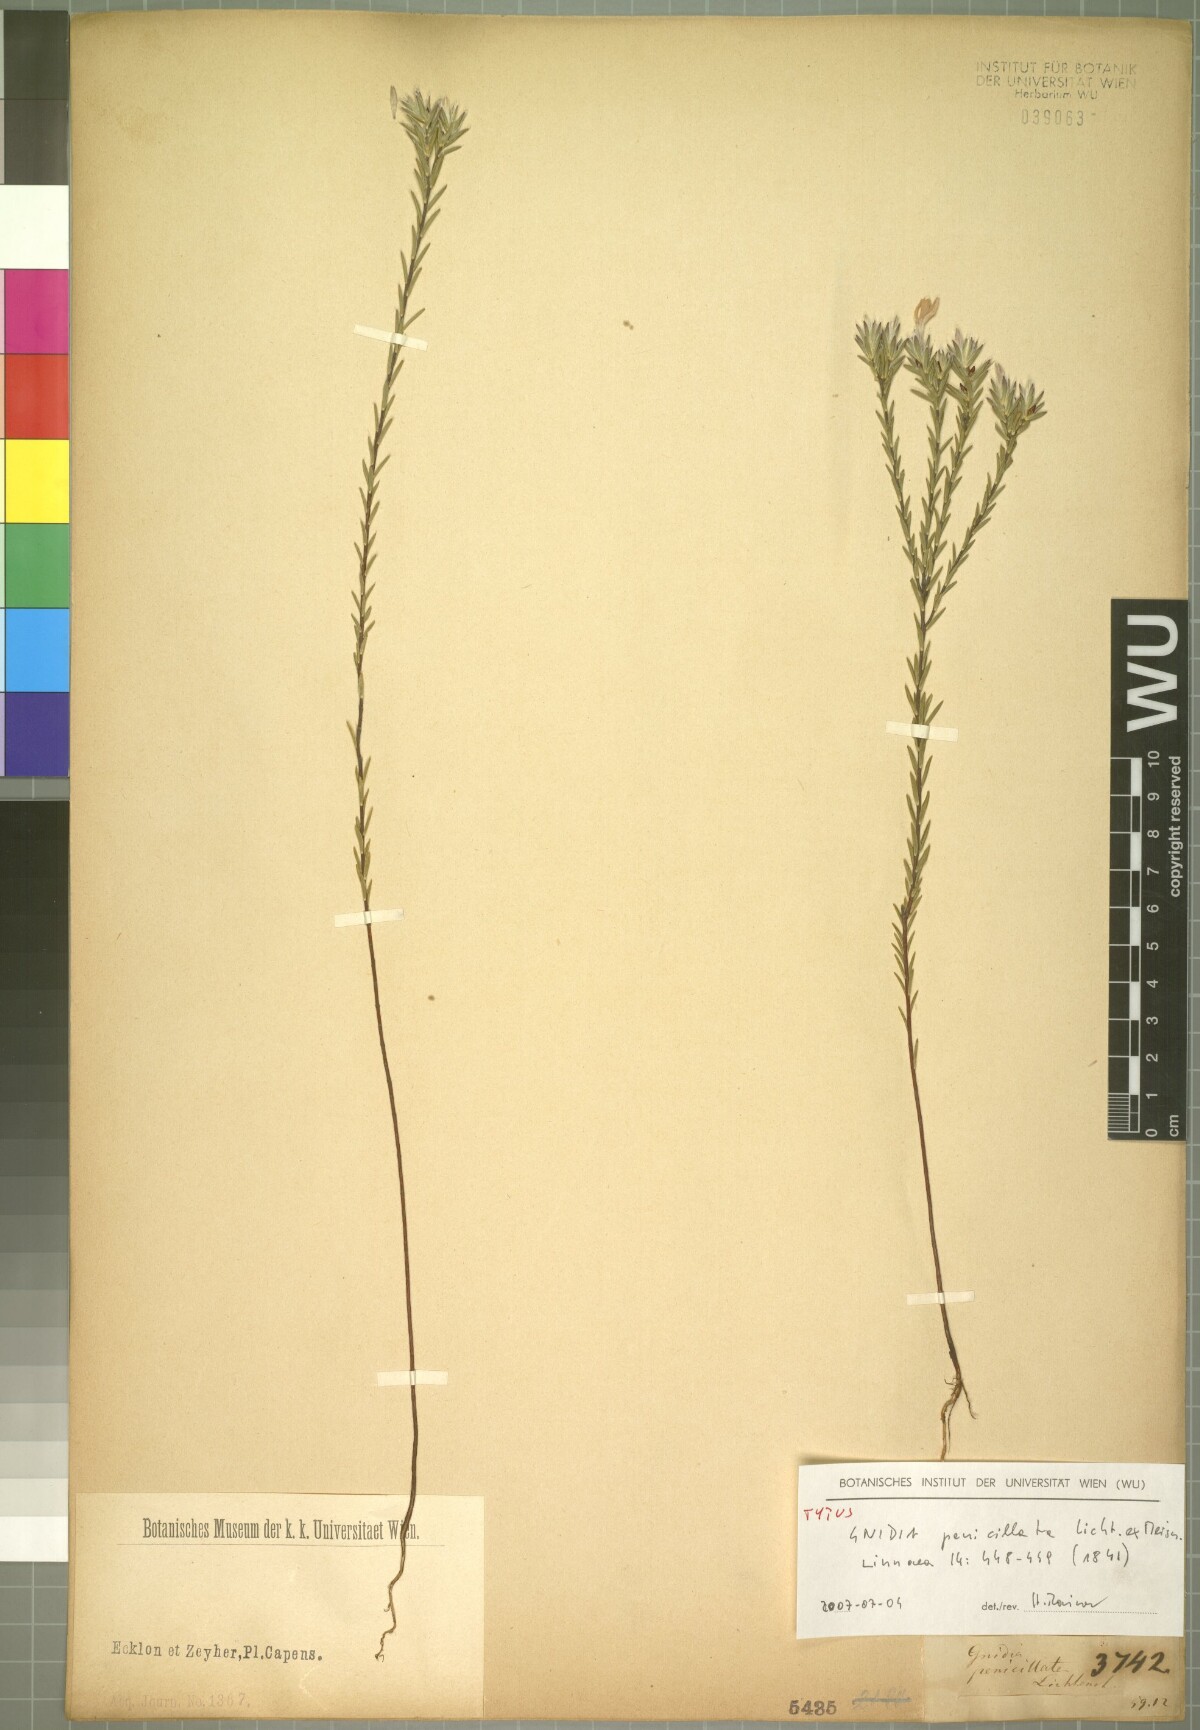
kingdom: Plantae
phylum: Tracheophyta
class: Magnoliopsida
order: Malvales
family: Thymelaeaceae
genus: Gnidia
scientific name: Gnidia penicillata
